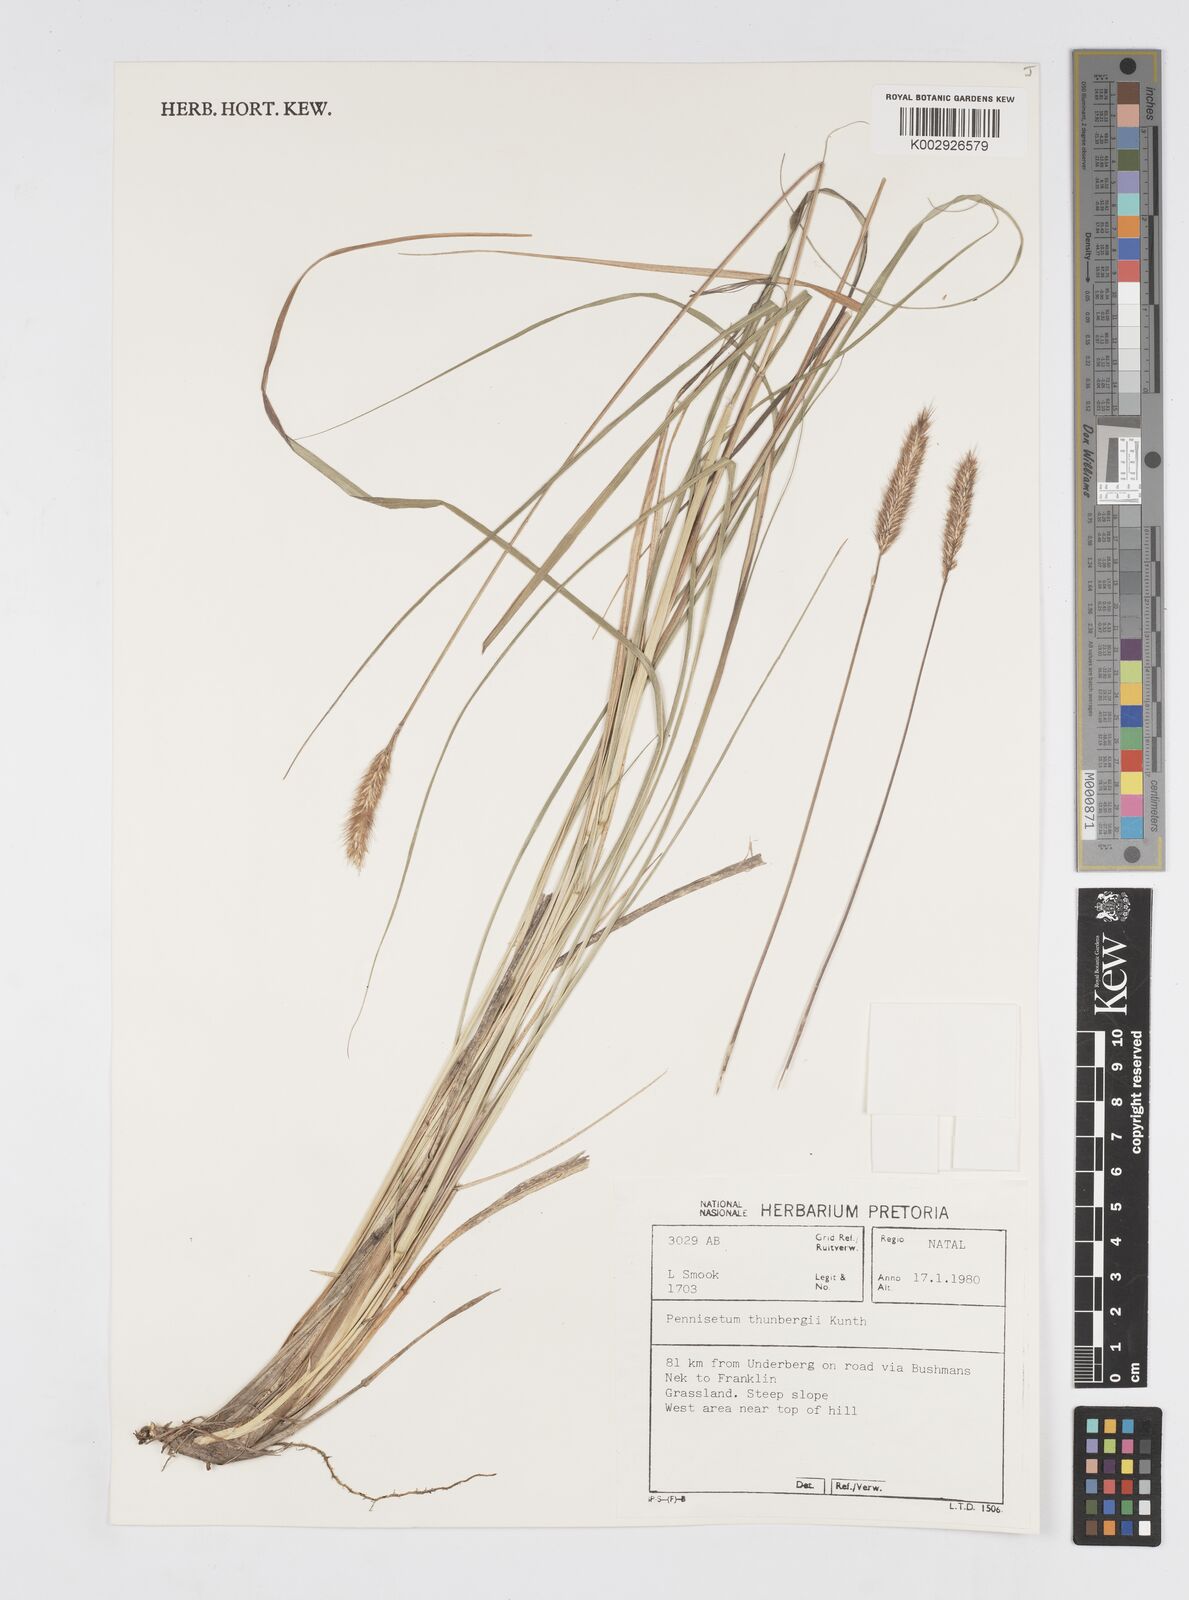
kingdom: Plantae
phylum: Tracheophyta
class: Liliopsida
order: Poales
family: Poaceae
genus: Cenchrus
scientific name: Cenchrus geniculatus
